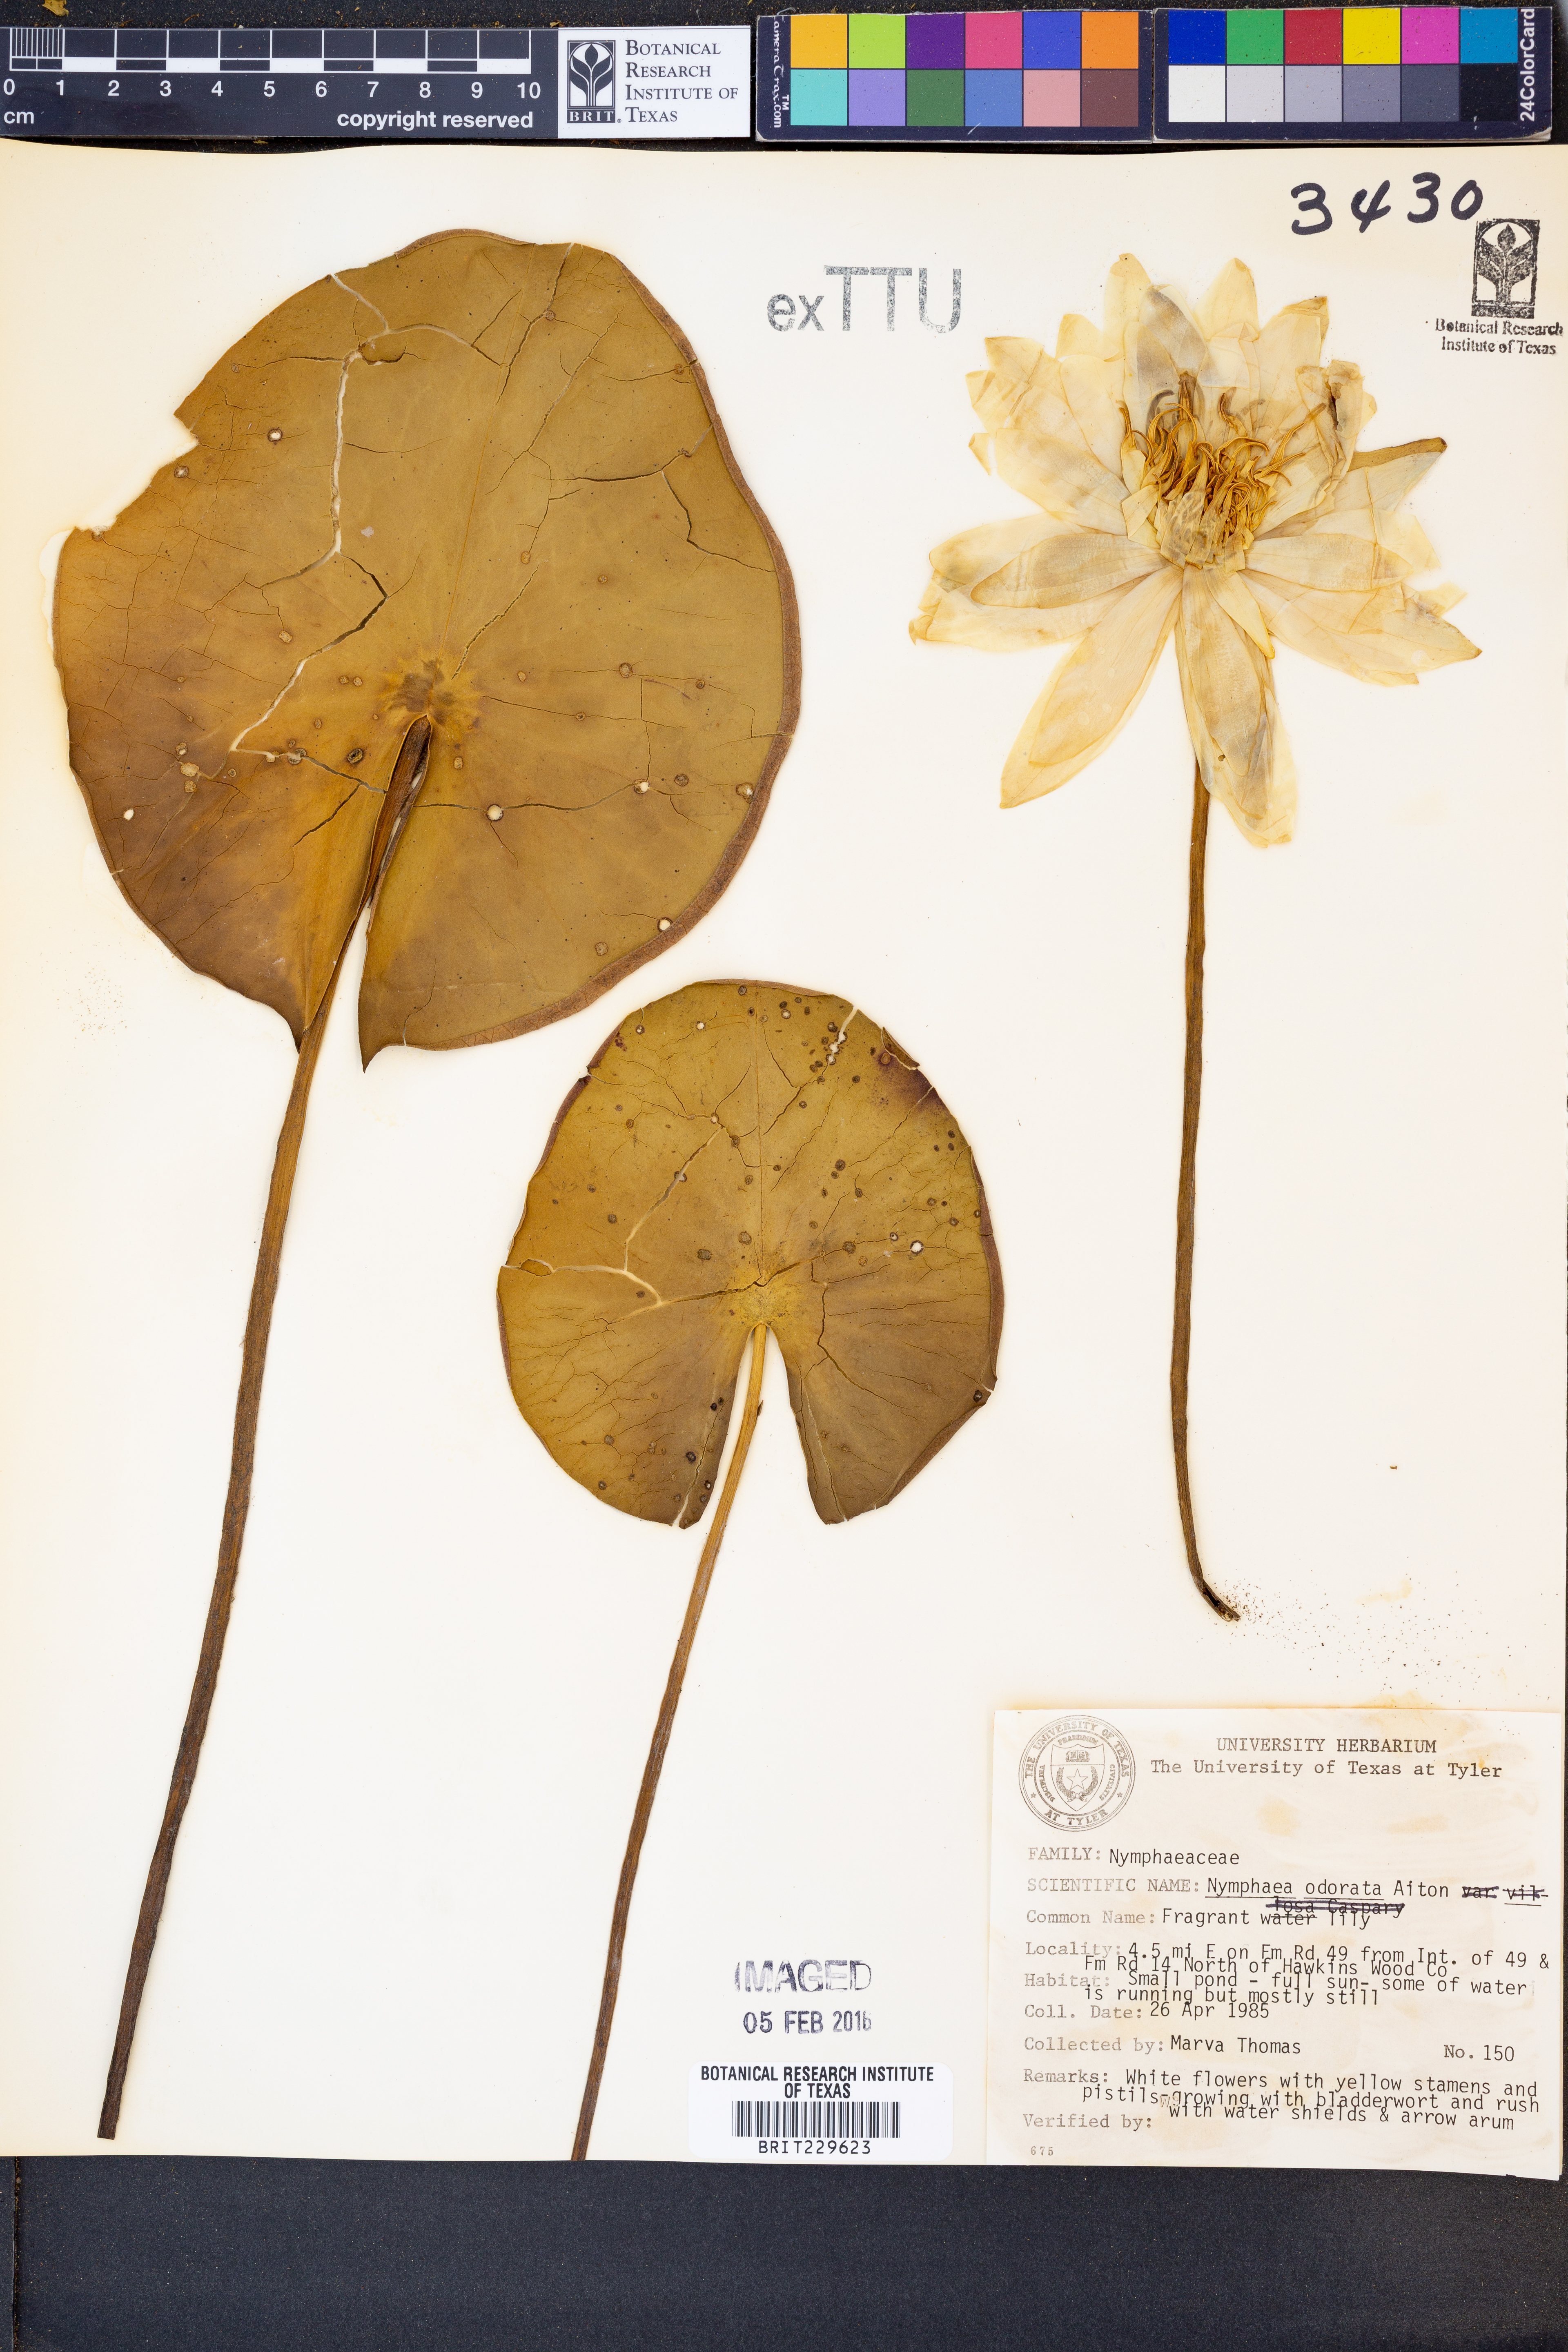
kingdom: Plantae
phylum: Tracheophyta
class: Magnoliopsida
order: Nymphaeales
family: Nymphaeaceae
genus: Nymphaea
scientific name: Nymphaea odorata
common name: Fragrant water-lily
